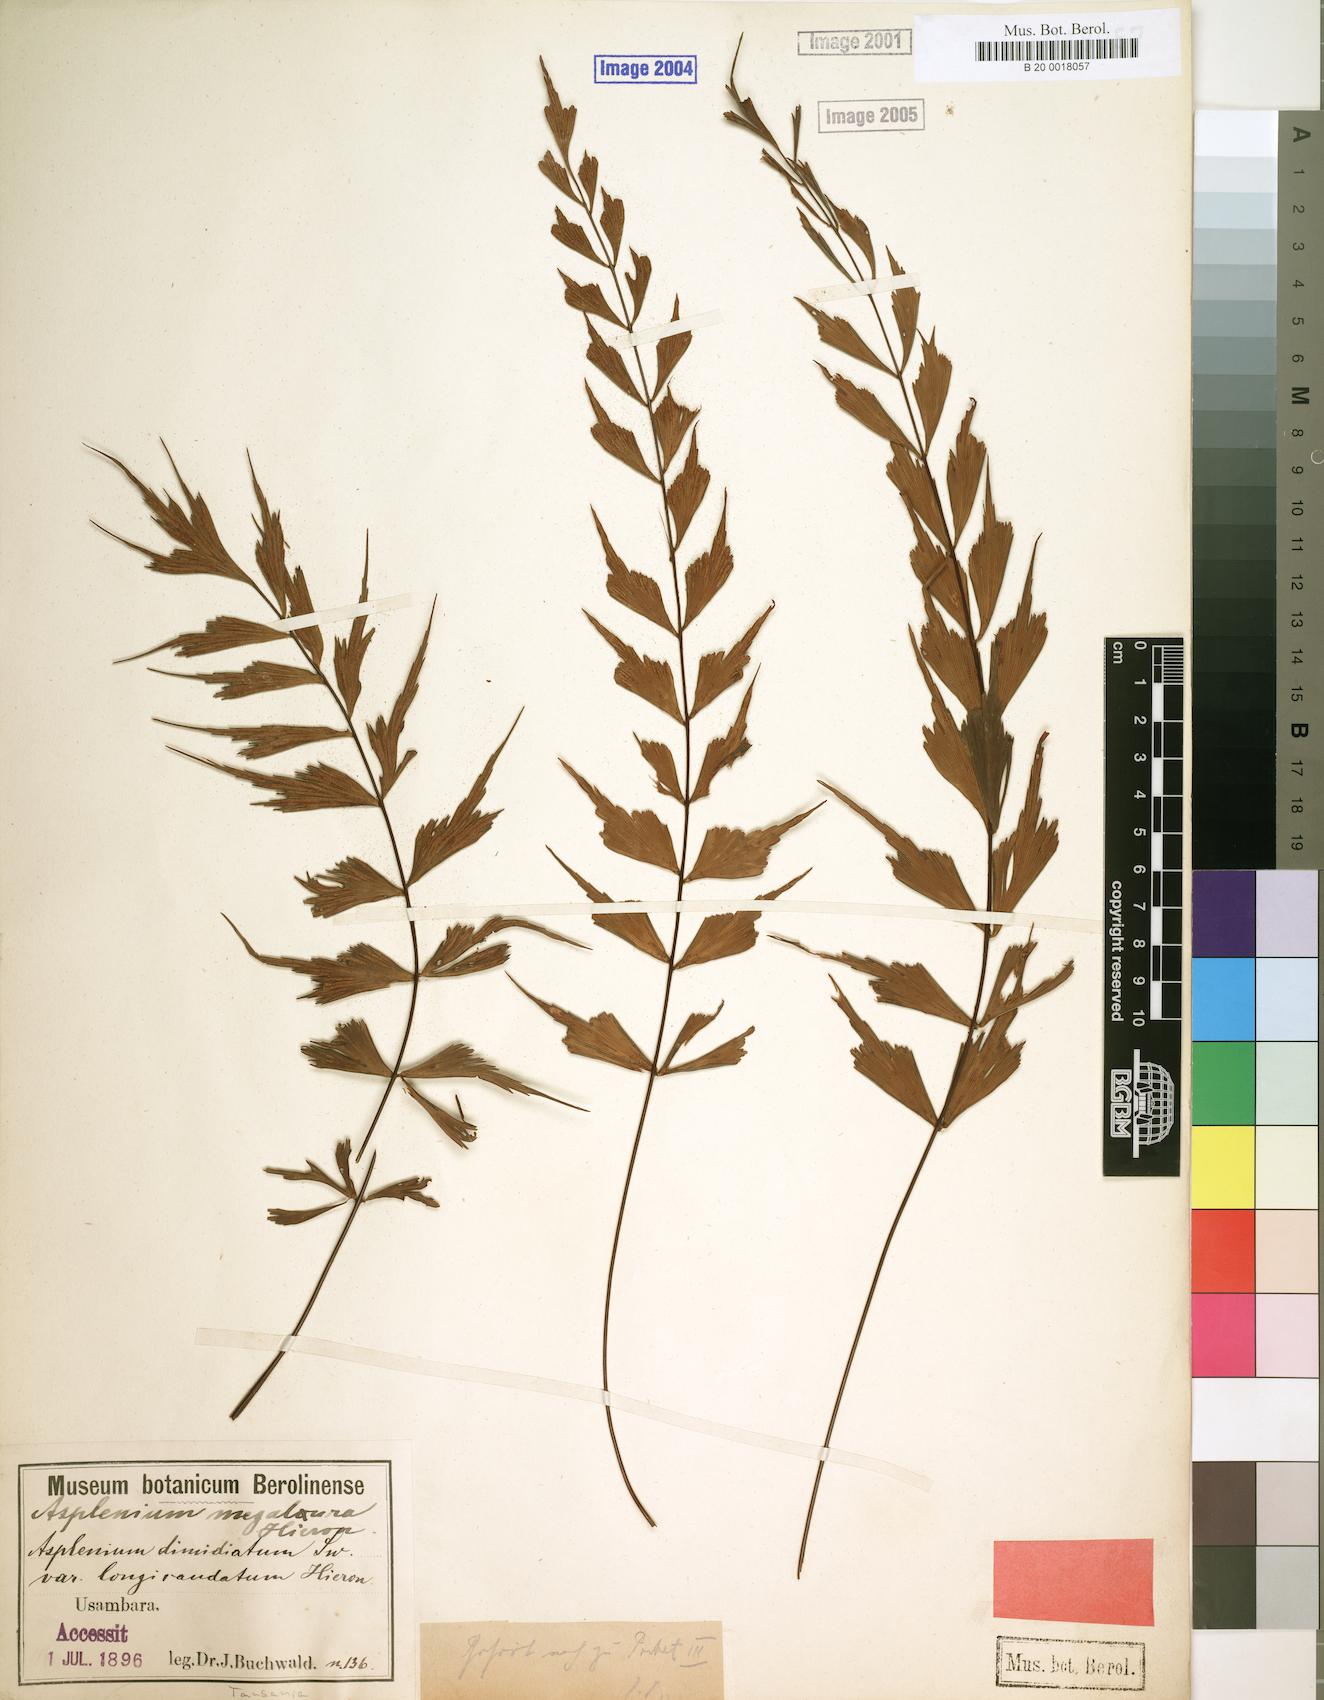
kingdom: Plantae
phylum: Tracheophyta
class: Polypodiopsida
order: Polypodiales
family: Aspleniaceae
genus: Asplenium
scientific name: Asplenium megalura
